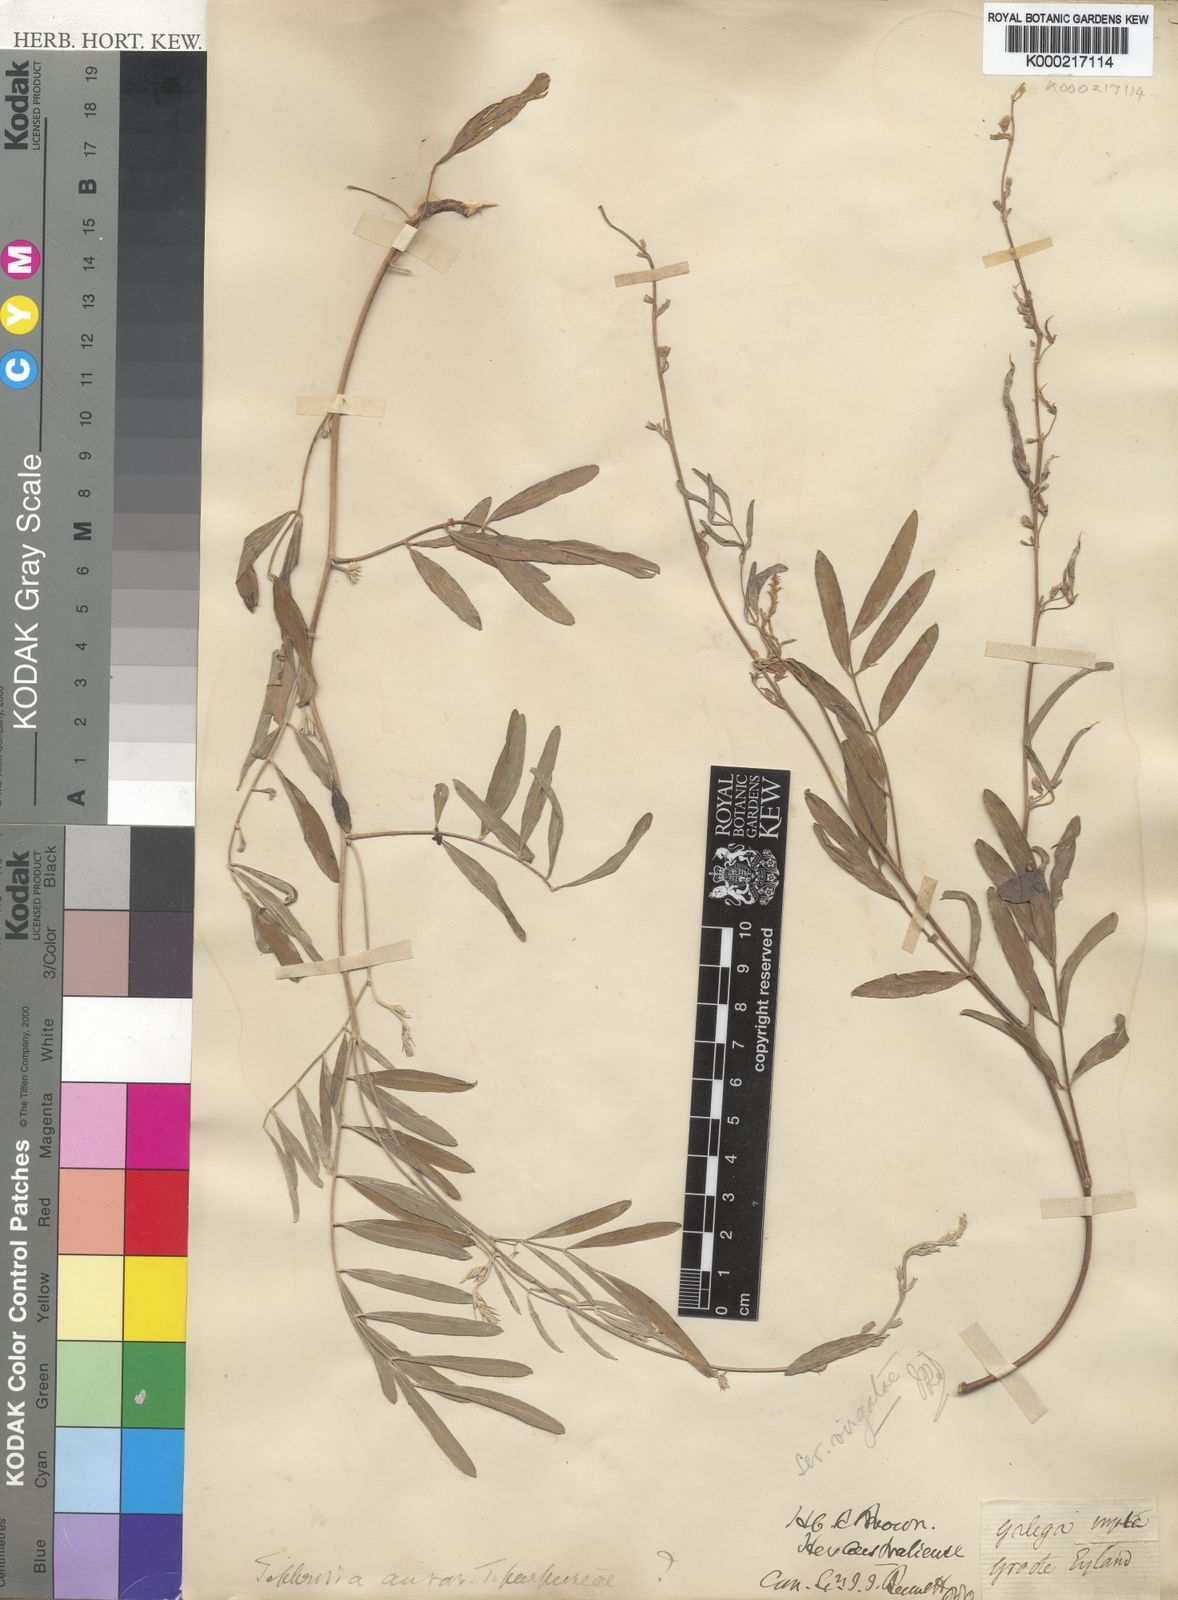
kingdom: Plantae
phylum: Tracheophyta
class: Magnoliopsida
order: Fabales
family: Fabaceae
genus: Tephrosia
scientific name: Tephrosia purpurea
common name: Fishpoison
